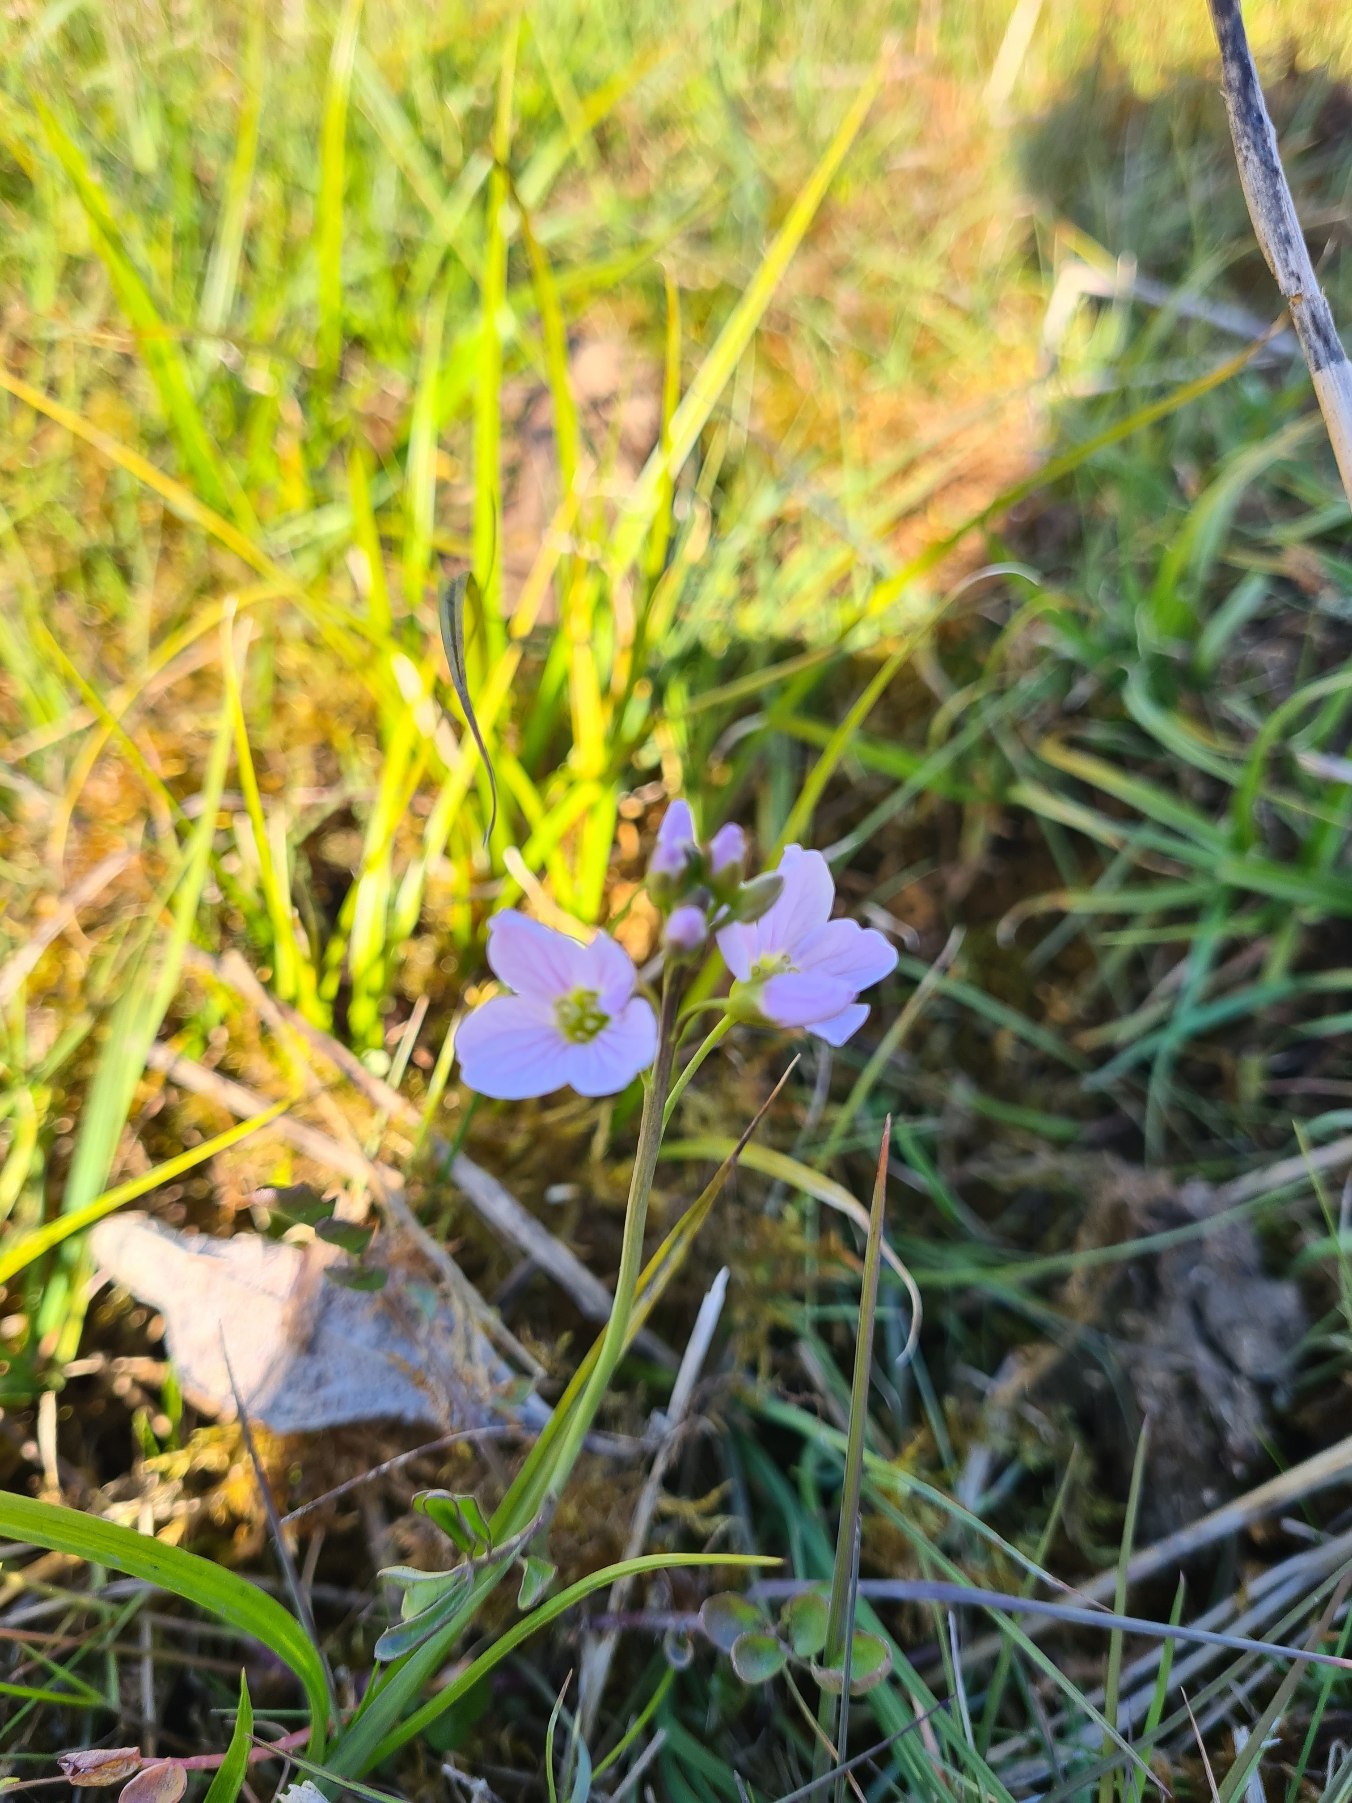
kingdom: Plantae
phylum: Tracheophyta
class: Magnoliopsida
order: Brassicales
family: Brassicaceae
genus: Cardamine
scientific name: Cardamine pratensis
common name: Engkarse
